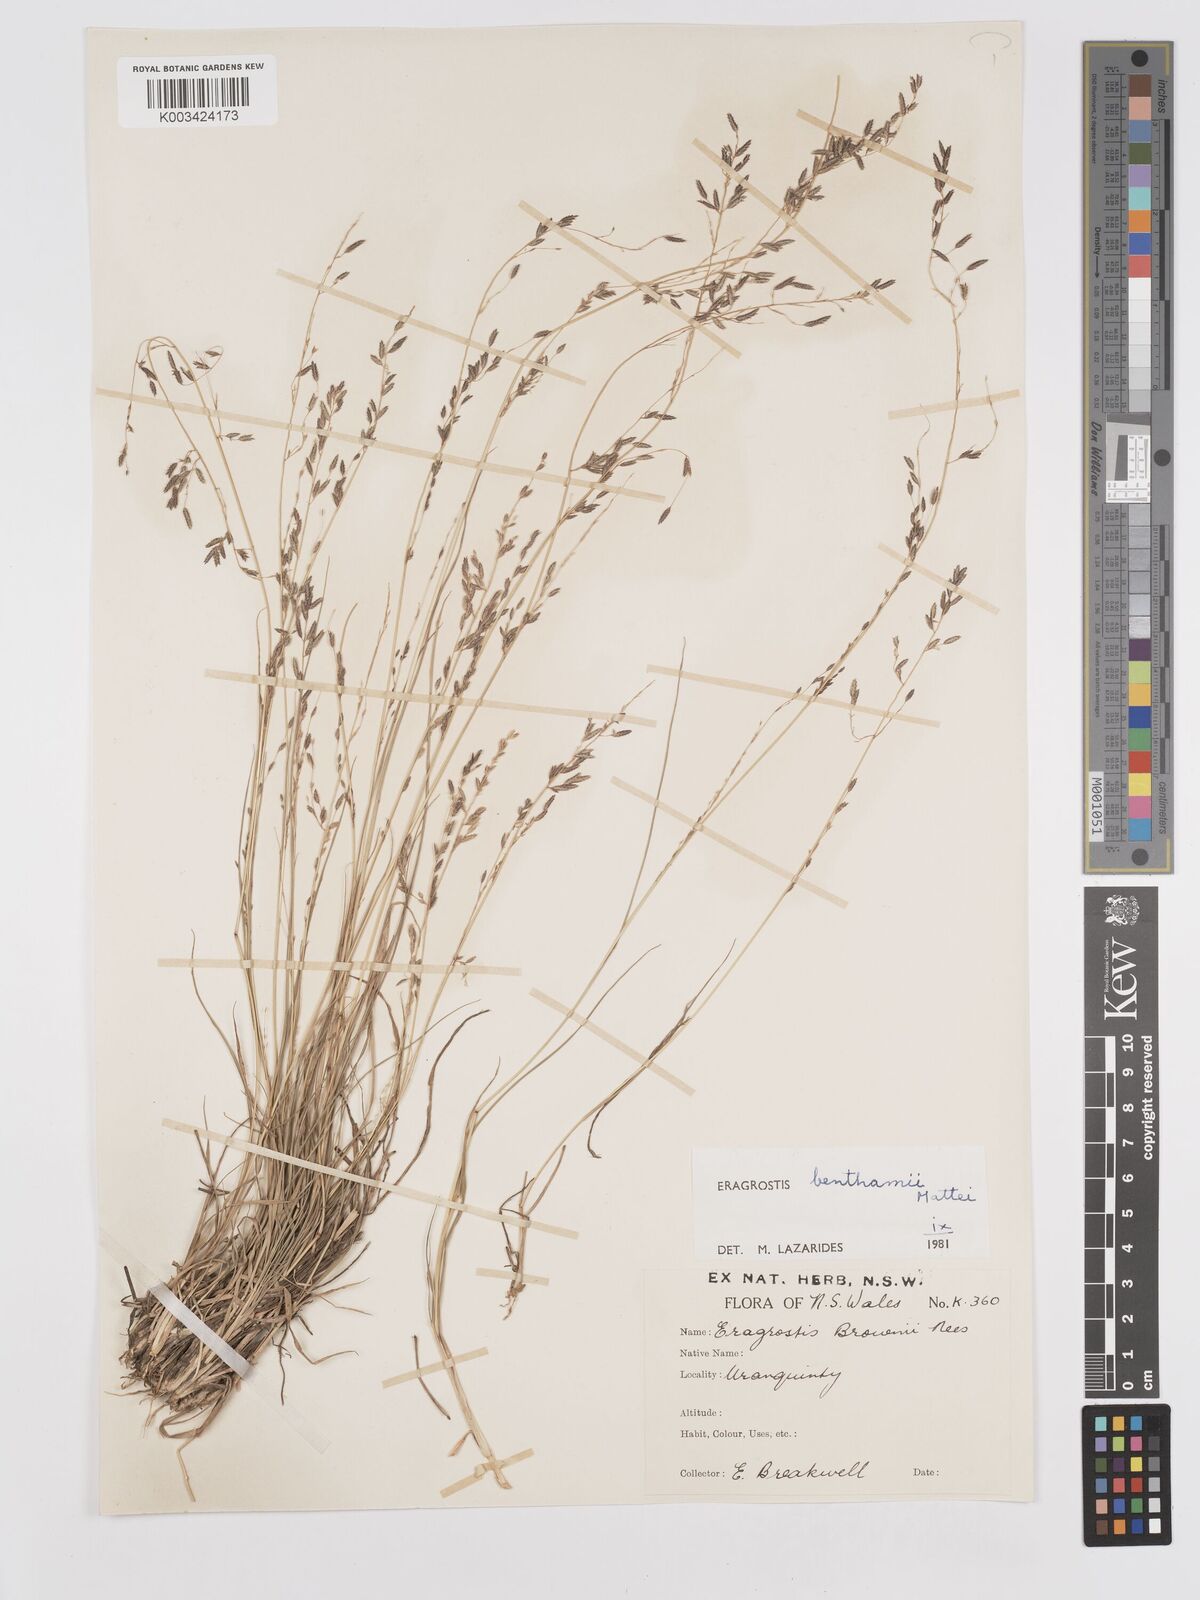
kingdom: Plantae
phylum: Tracheophyta
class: Liliopsida
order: Poales
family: Poaceae
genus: Eragrostis
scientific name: Eragrostis brownii
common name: Lovegrass
